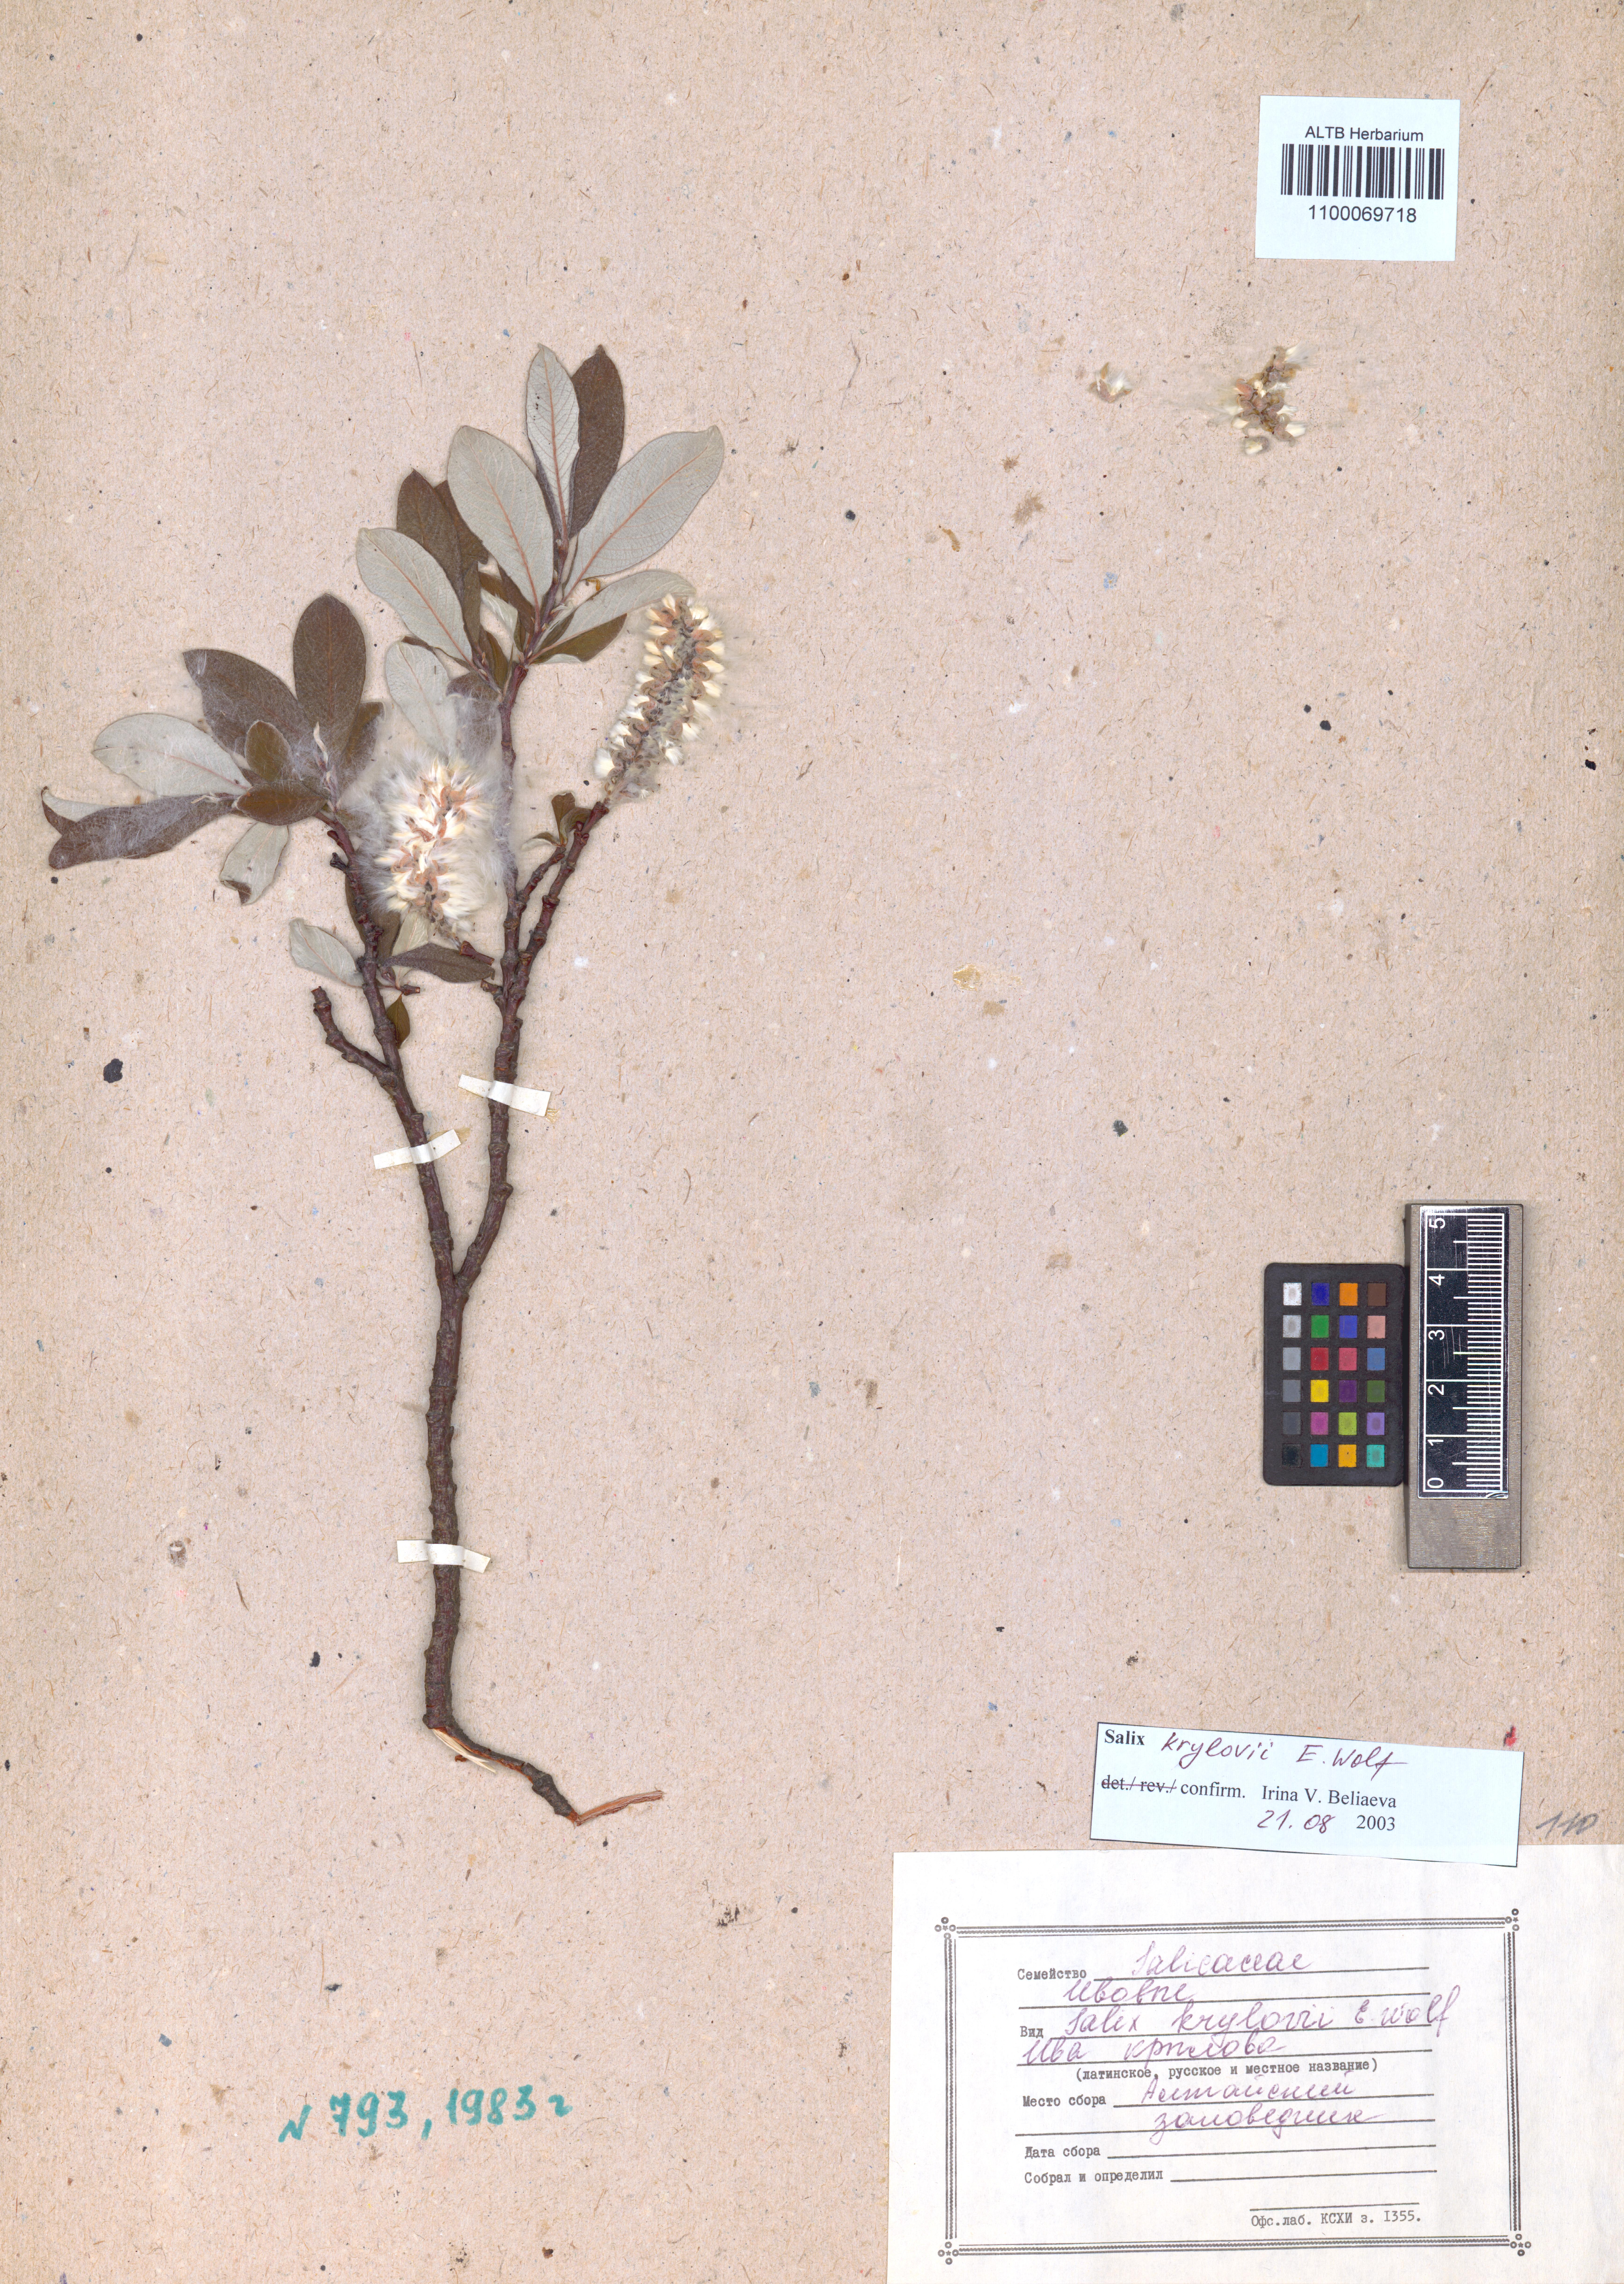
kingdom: Plantae
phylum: Tracheophyta
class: Magnoliopsida
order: Malpighiales
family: Salicaceae
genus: Salix
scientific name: Salix krylovii
